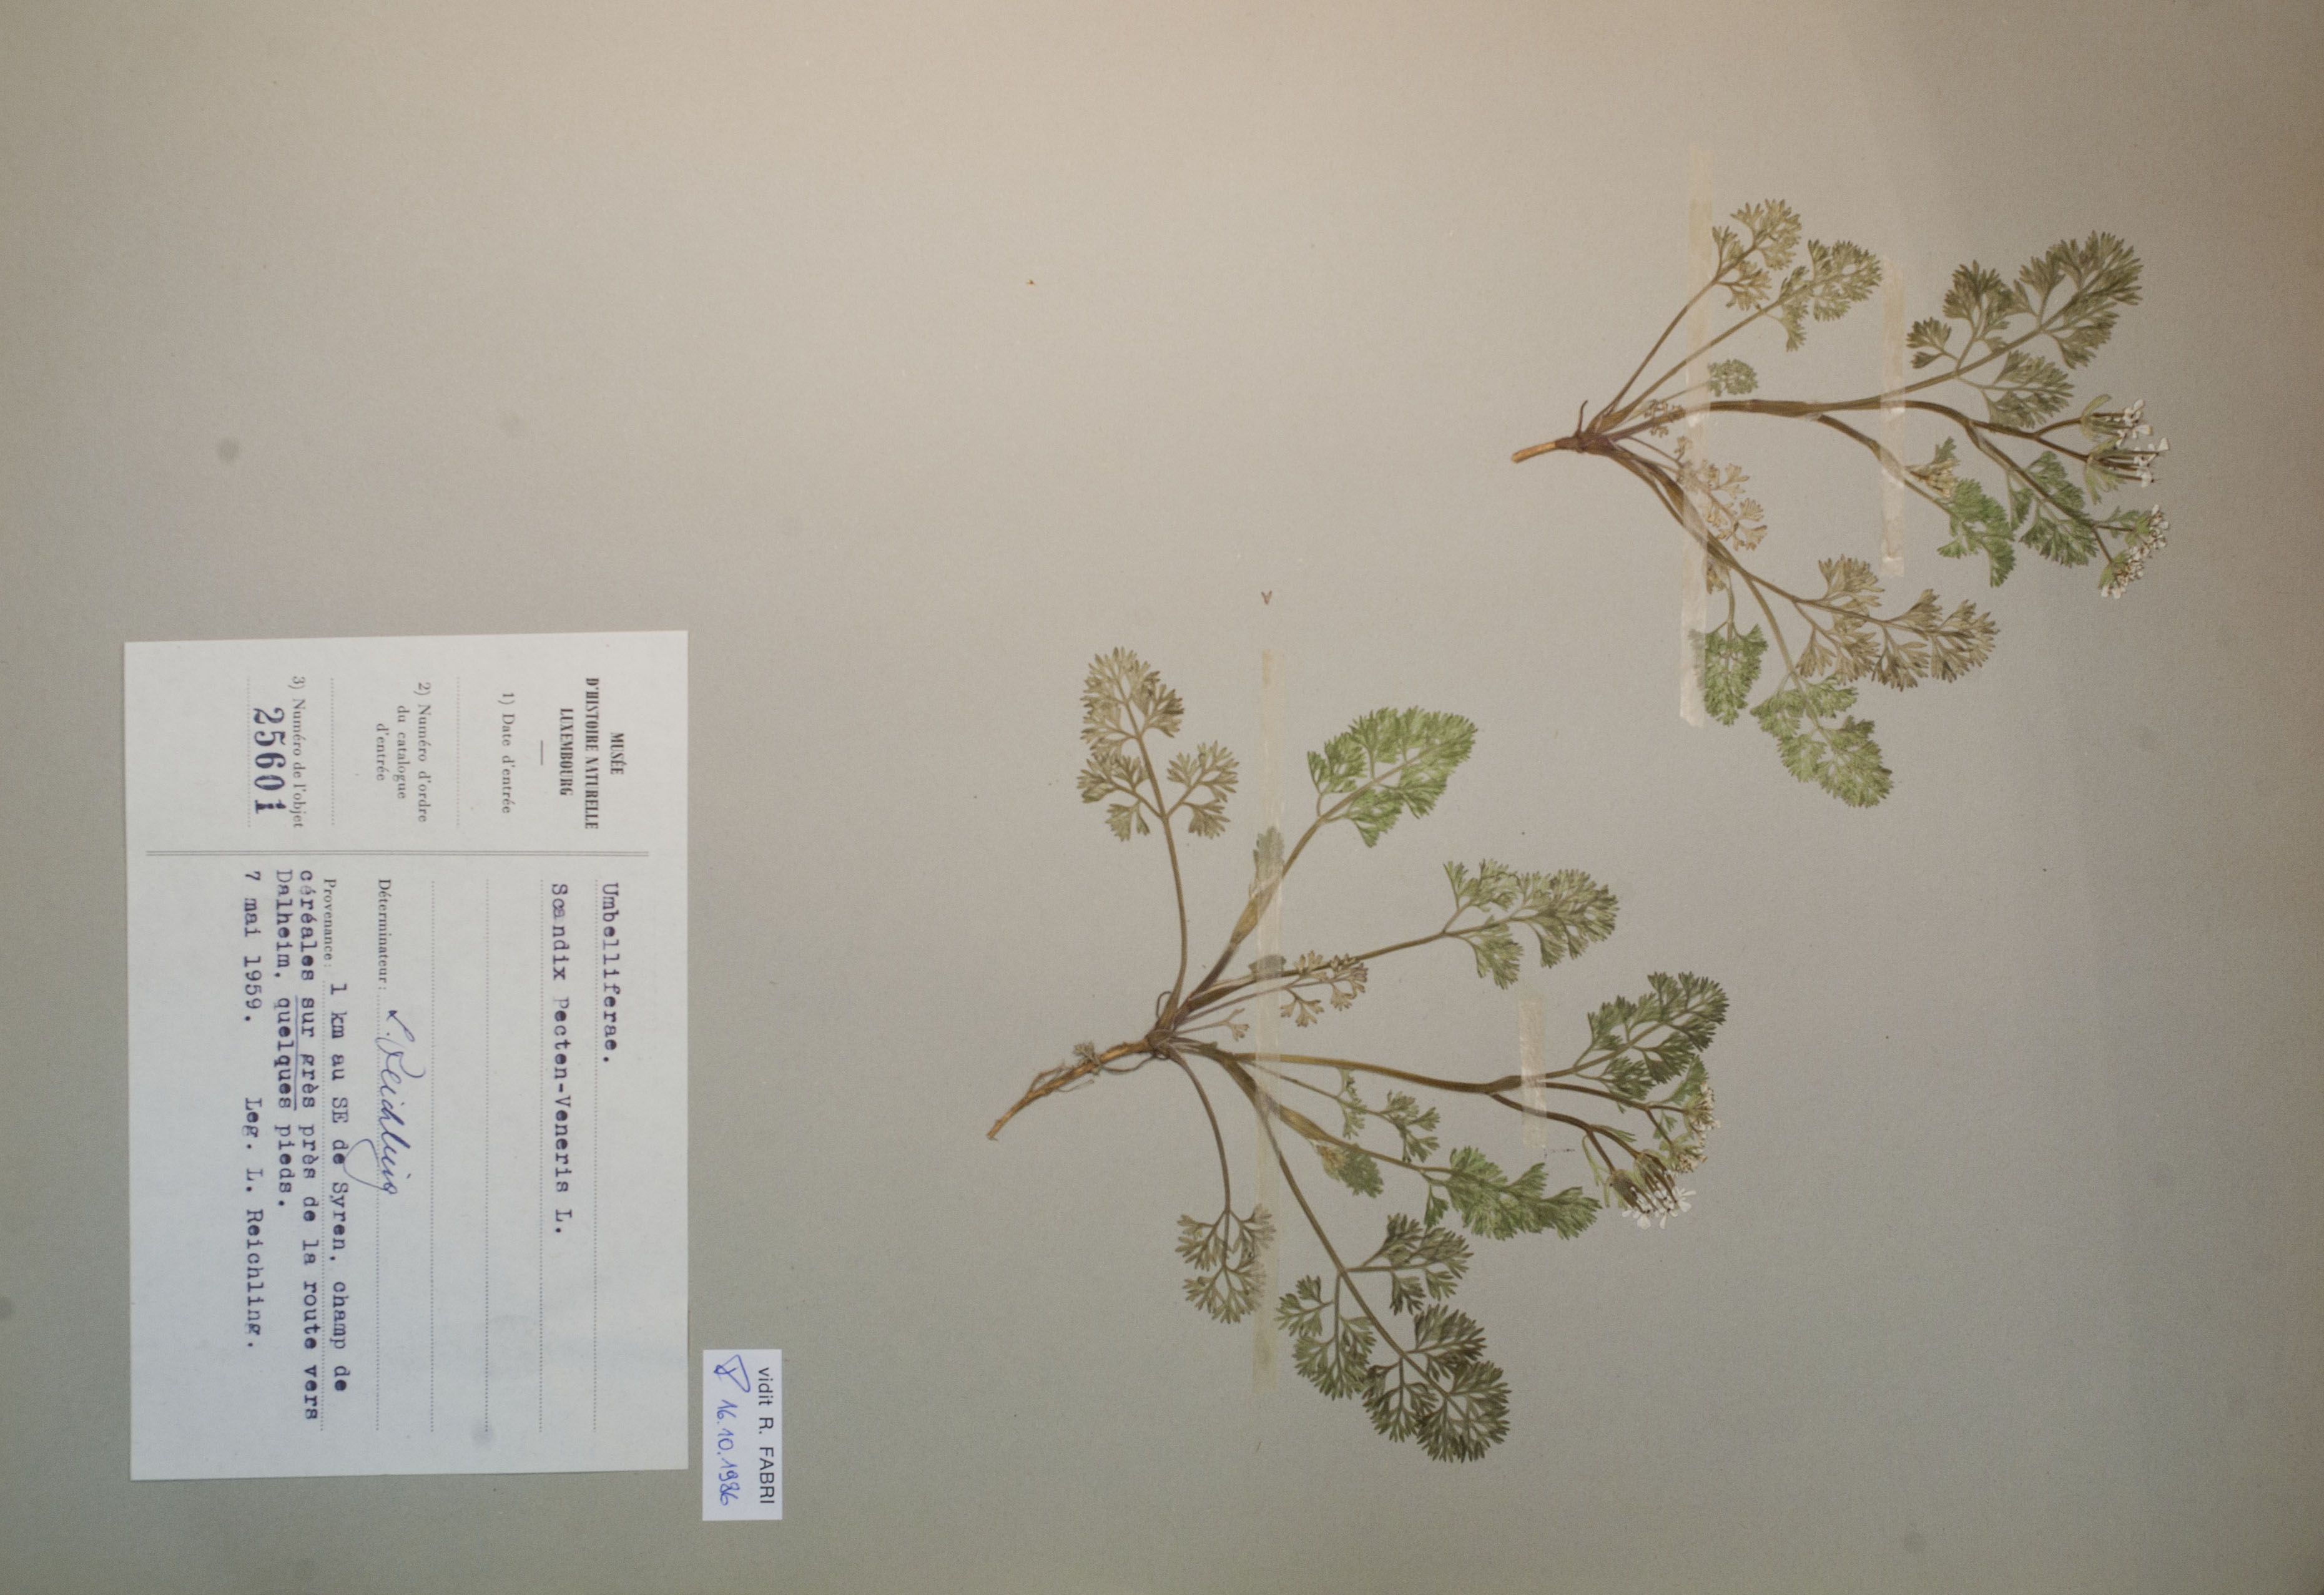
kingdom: Plantae
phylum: Tracheophyta
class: Magnoliopsida
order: Apiales
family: Apiaceae
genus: Scandix
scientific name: Scandix pecten-veneris
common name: Shepherd's-needle
